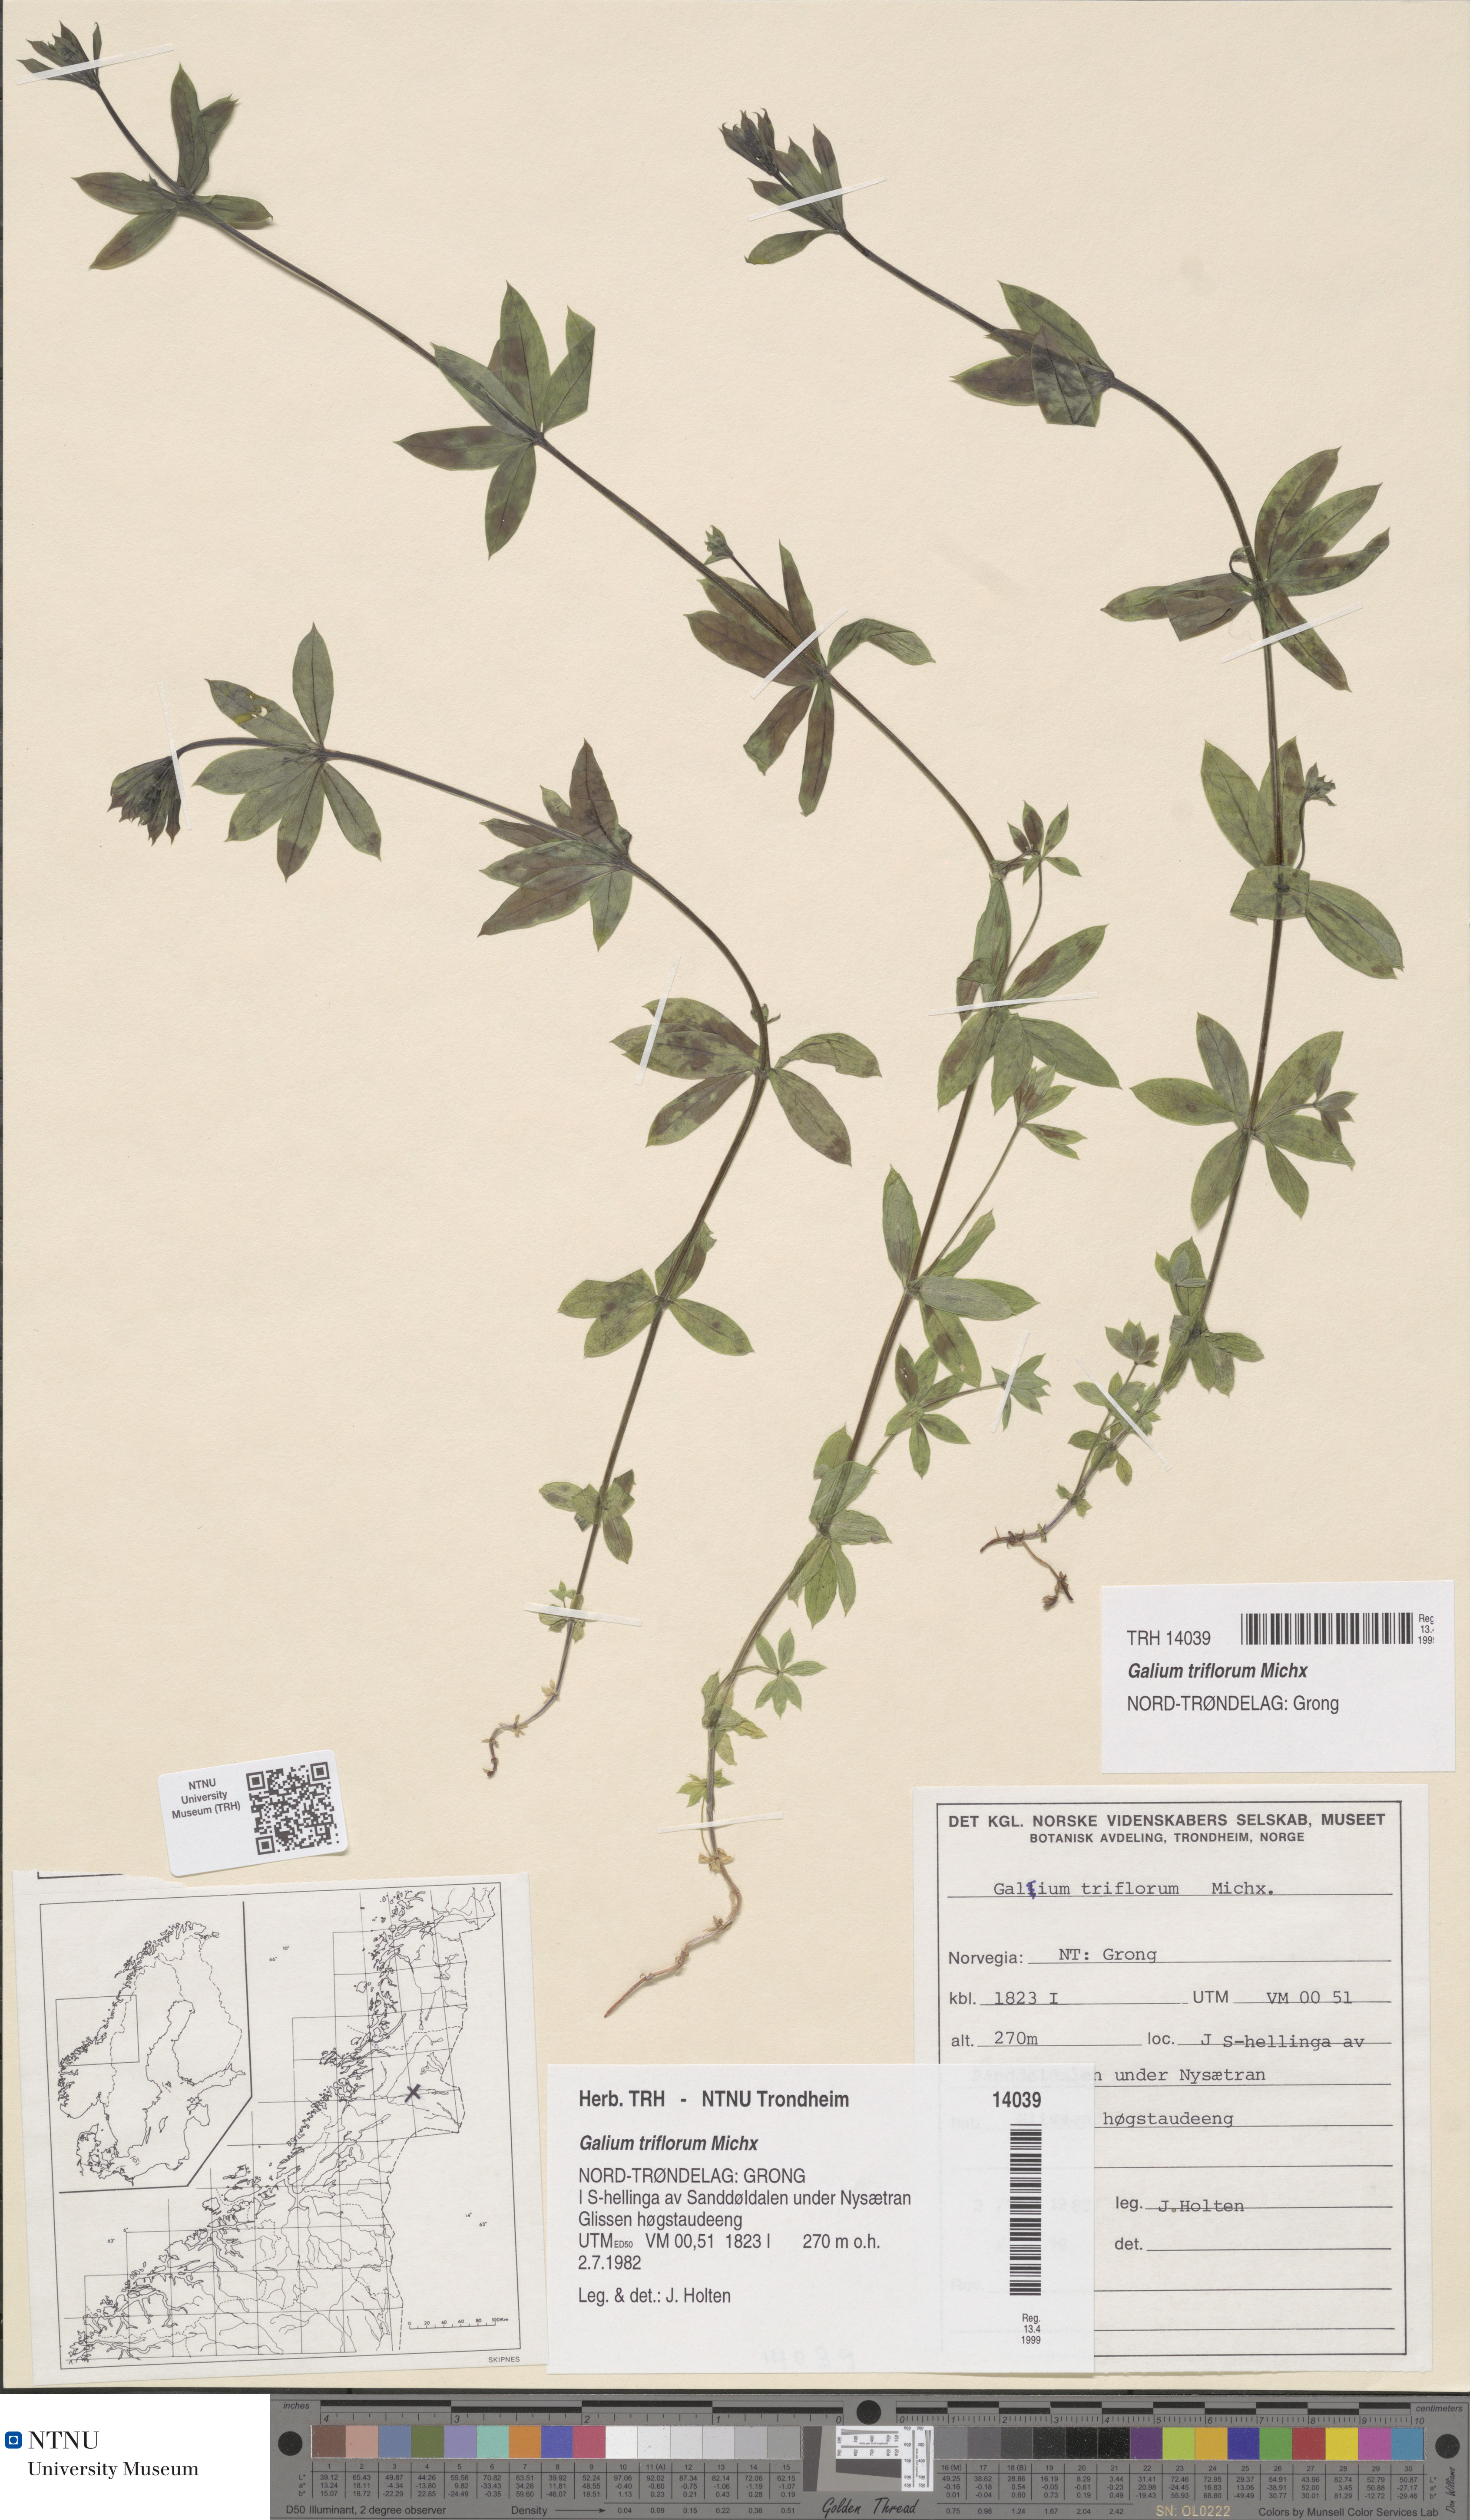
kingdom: Plantae
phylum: Tracheophyta
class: Magnoliopsida
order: Gentianales
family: Rubiaceae
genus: Galium
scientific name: Galium triflorum
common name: Fragrant bedstraw
